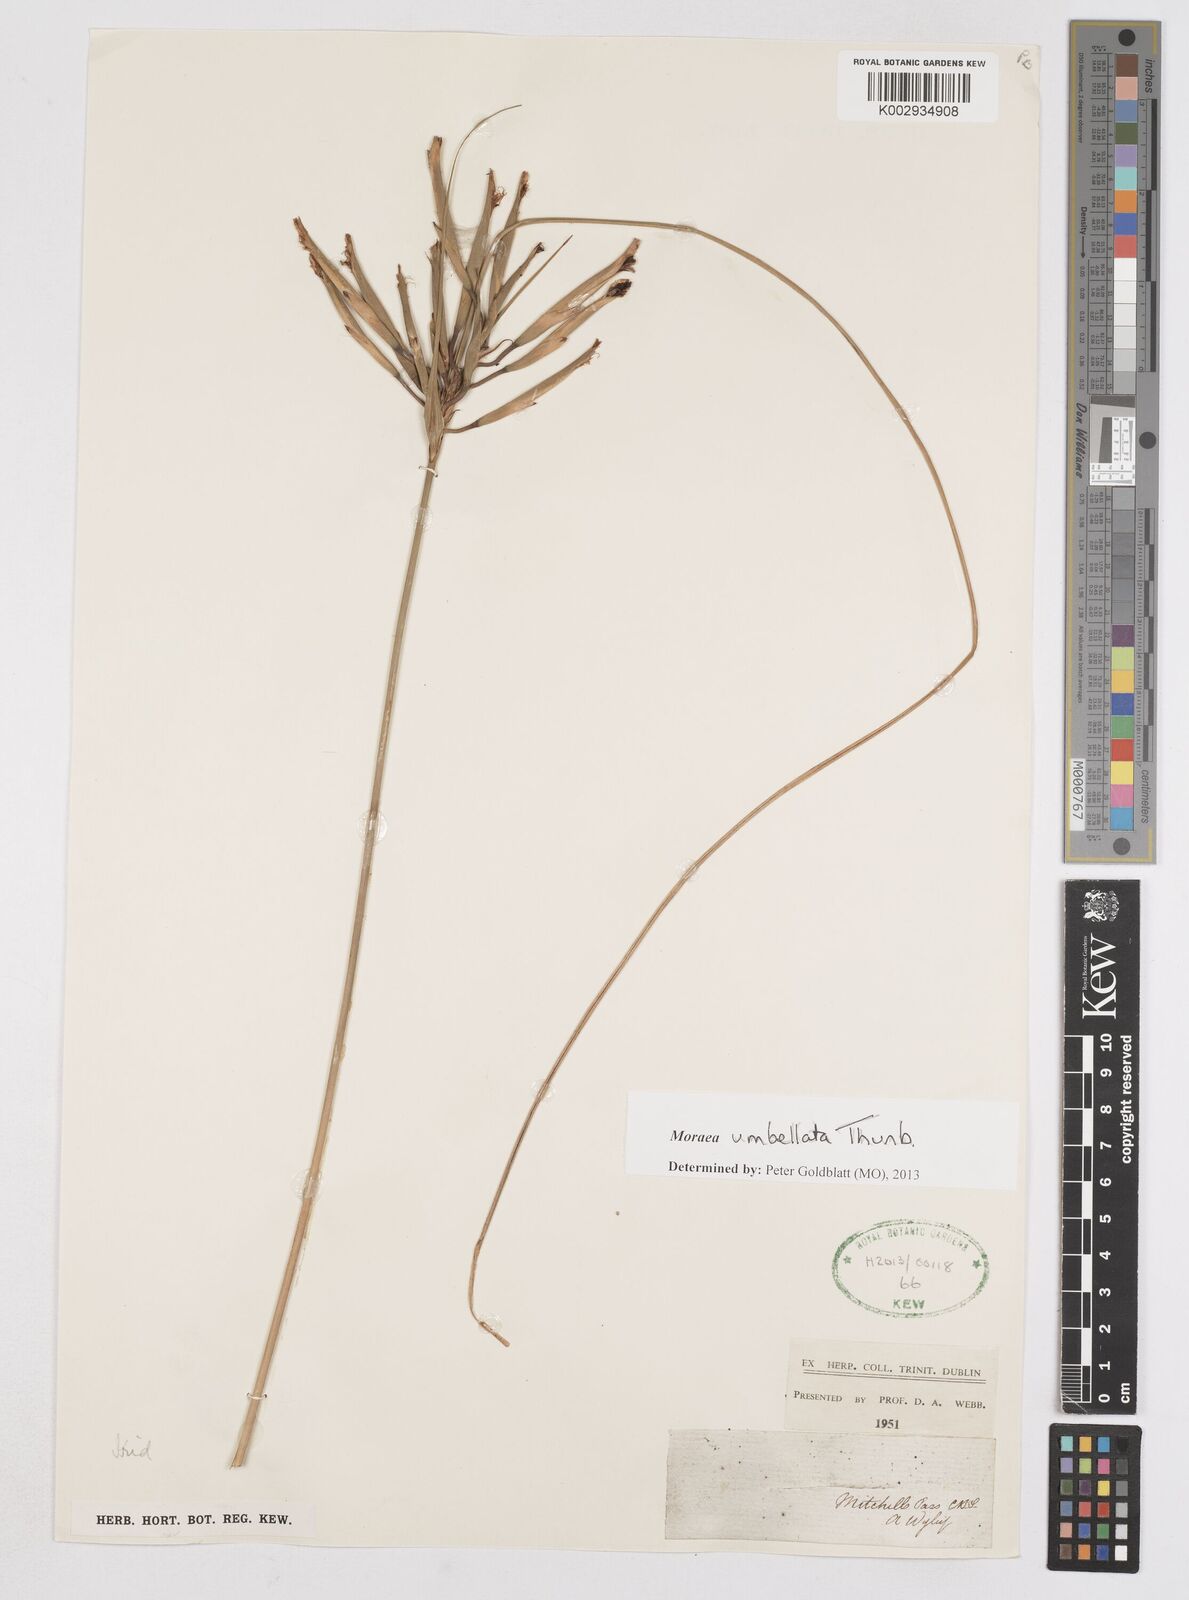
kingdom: Plantae
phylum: Tracheophyta
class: Liliopsida
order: Asparagales
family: Iridaceae
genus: Moraea
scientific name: Moraea umbellata
